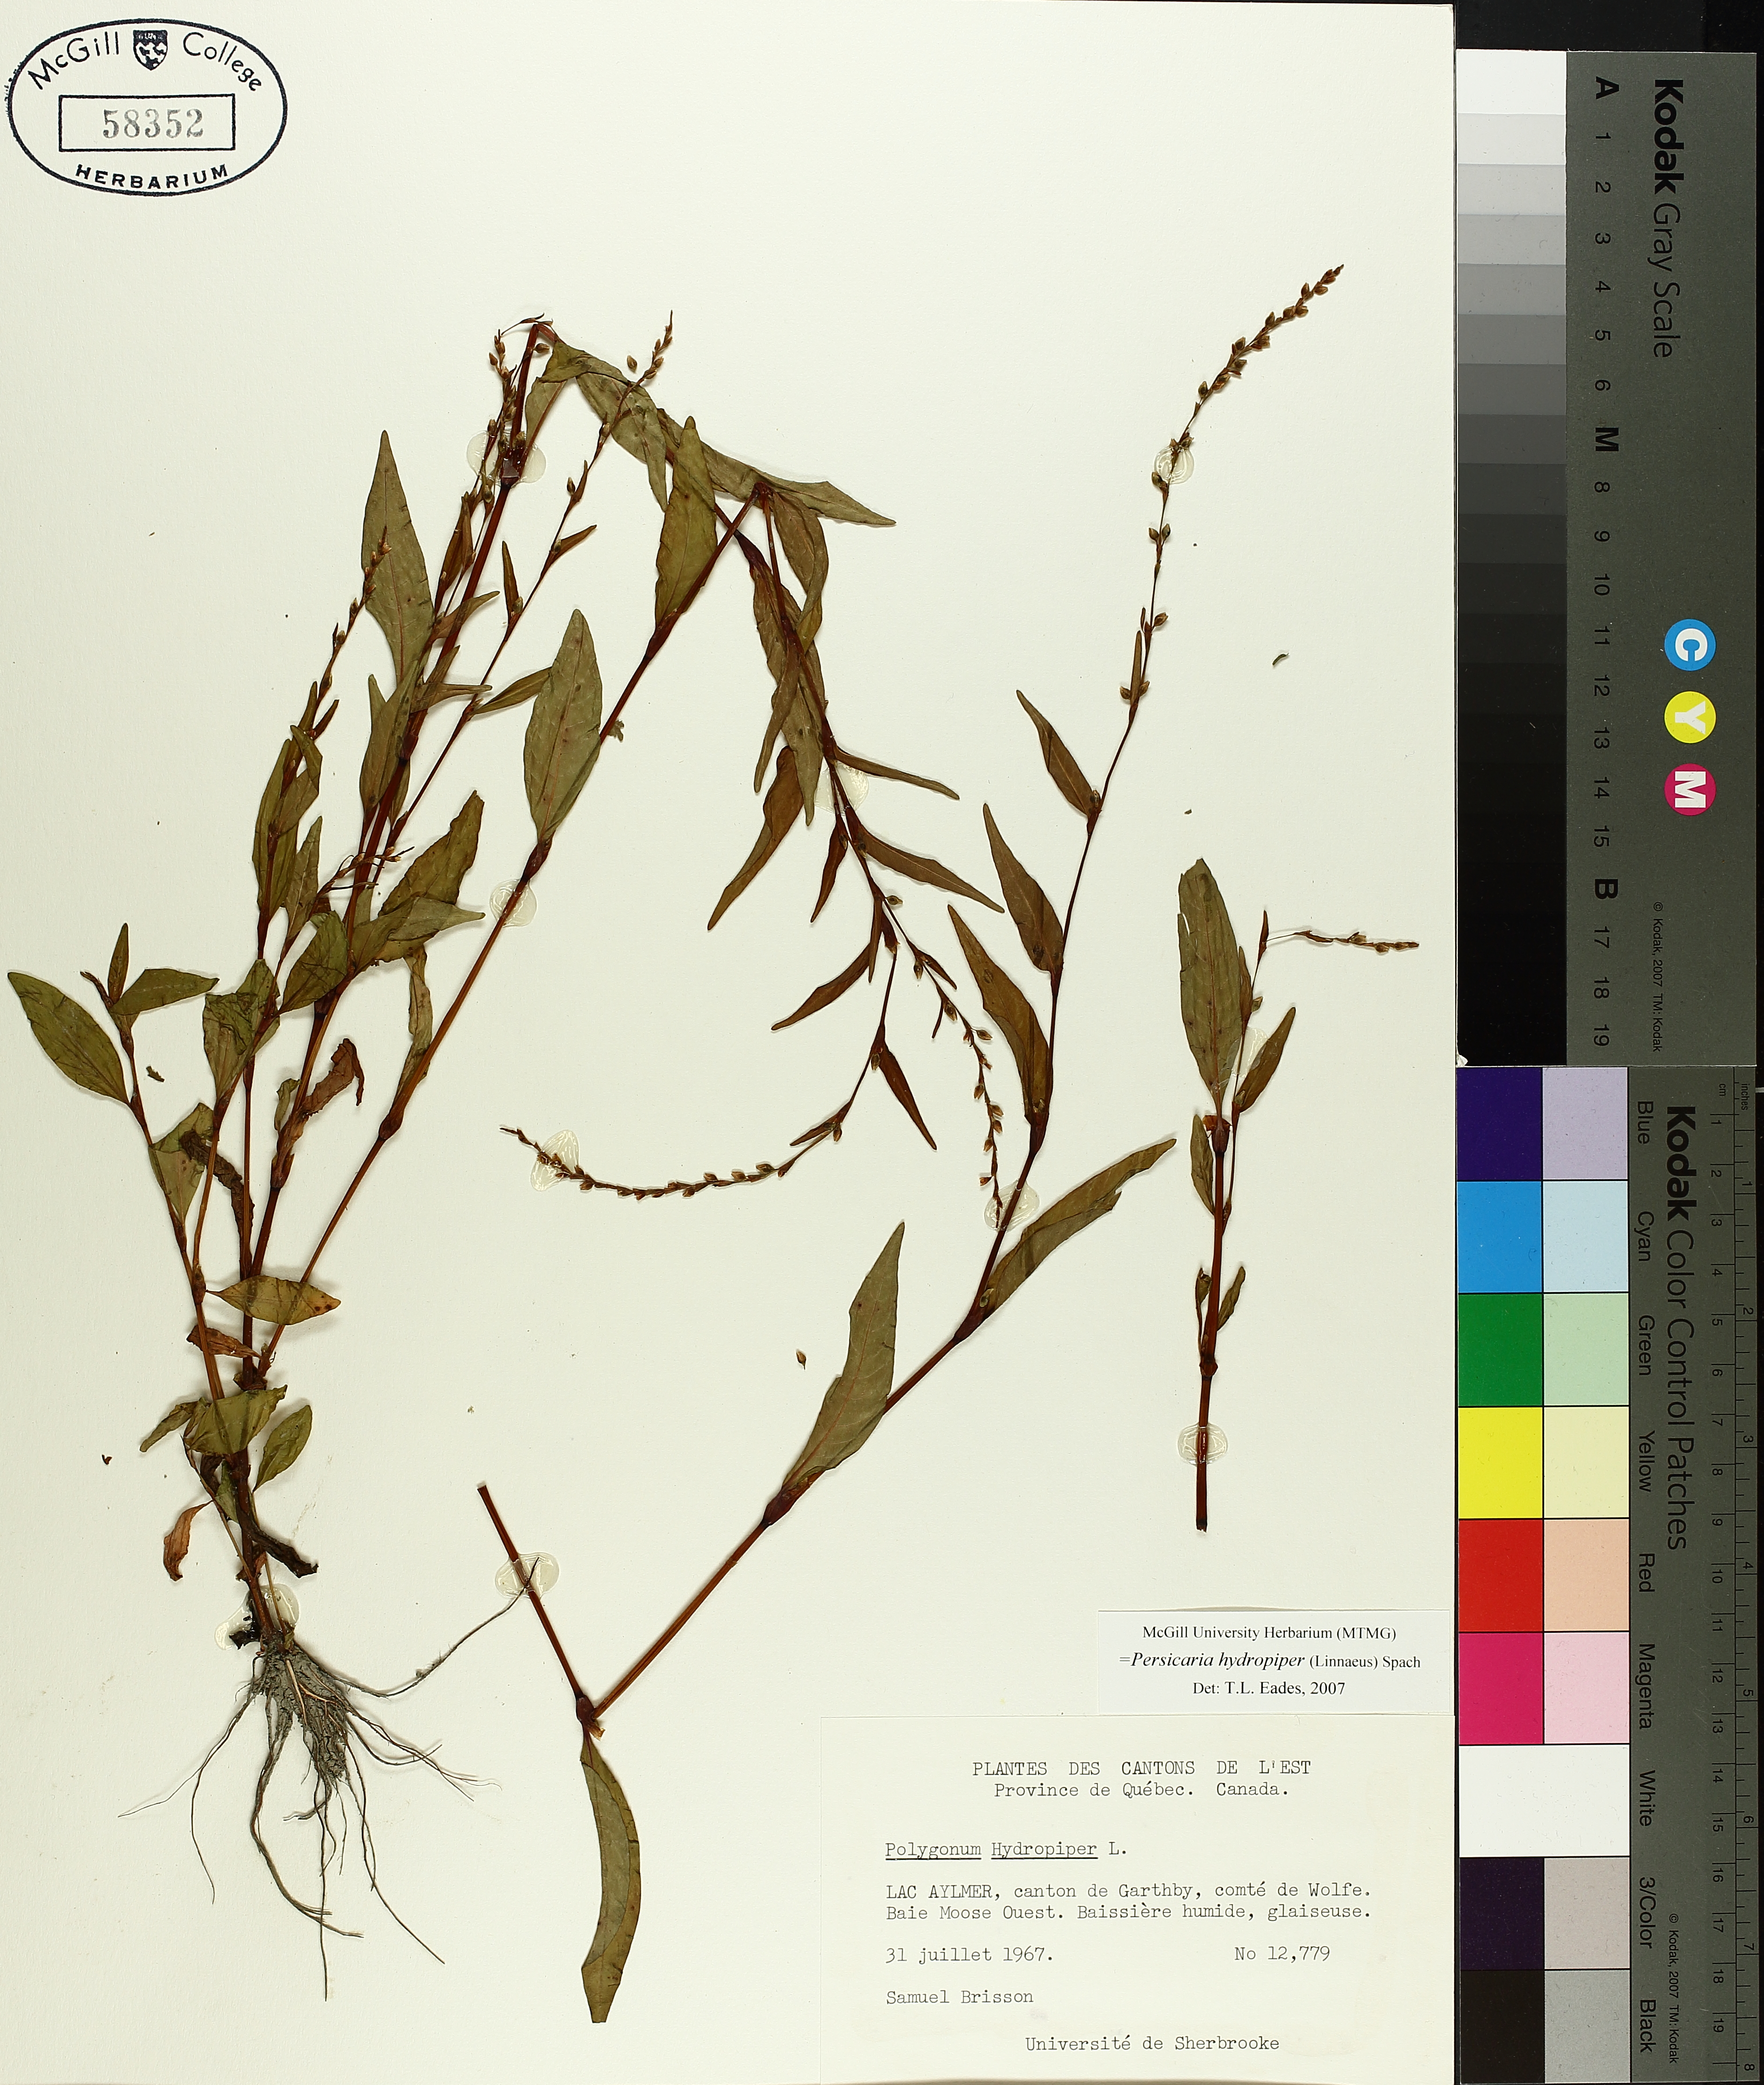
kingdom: Plantae
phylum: Tracheophyta
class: Magnoliopsida
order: Caryophyllales
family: Polygonaceae
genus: Persicaria
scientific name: Persicaria hydropiper
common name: Water-pepper
